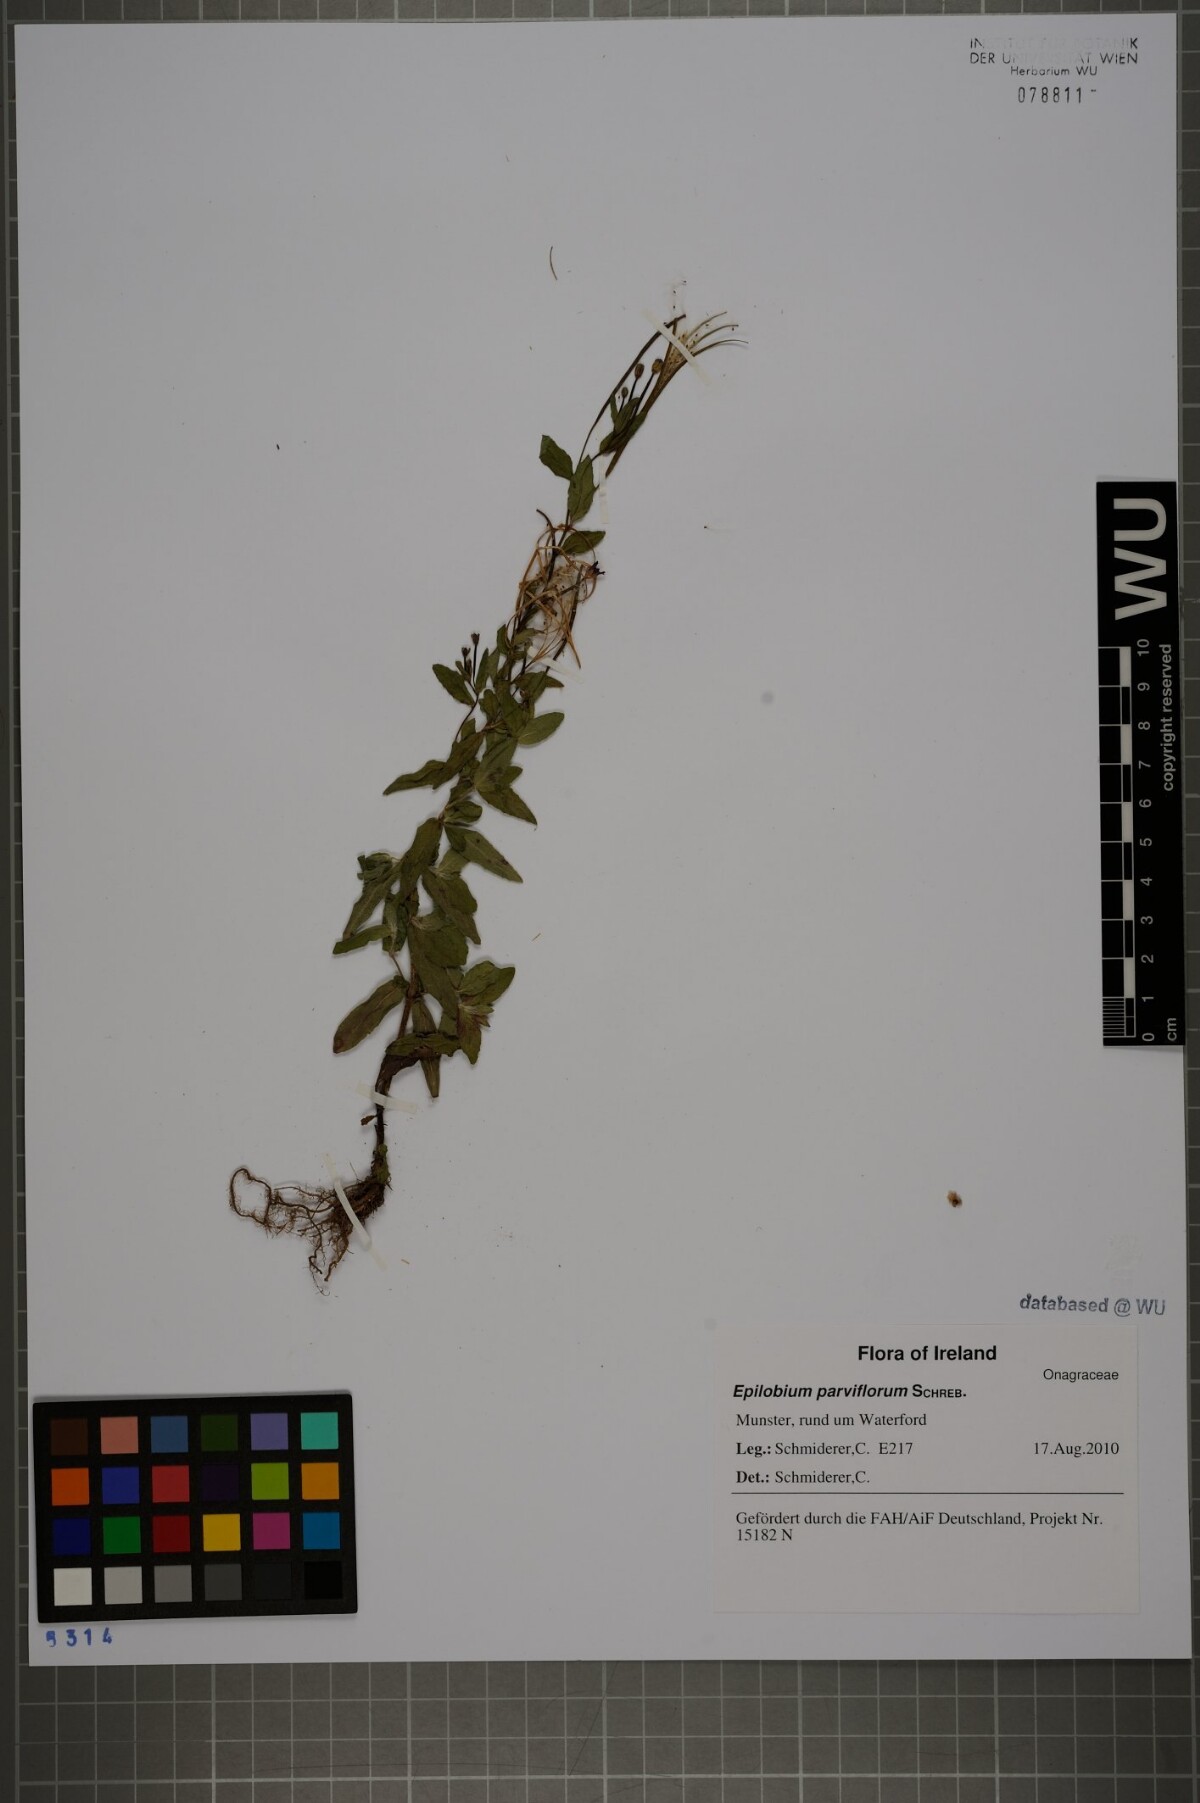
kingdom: Plantae
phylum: Tracheophyta
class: Magnoliopsida
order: Myrtales
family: Onagraceae
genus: Epilobium
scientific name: Epilobium parviflorum
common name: Hoary willowherb
